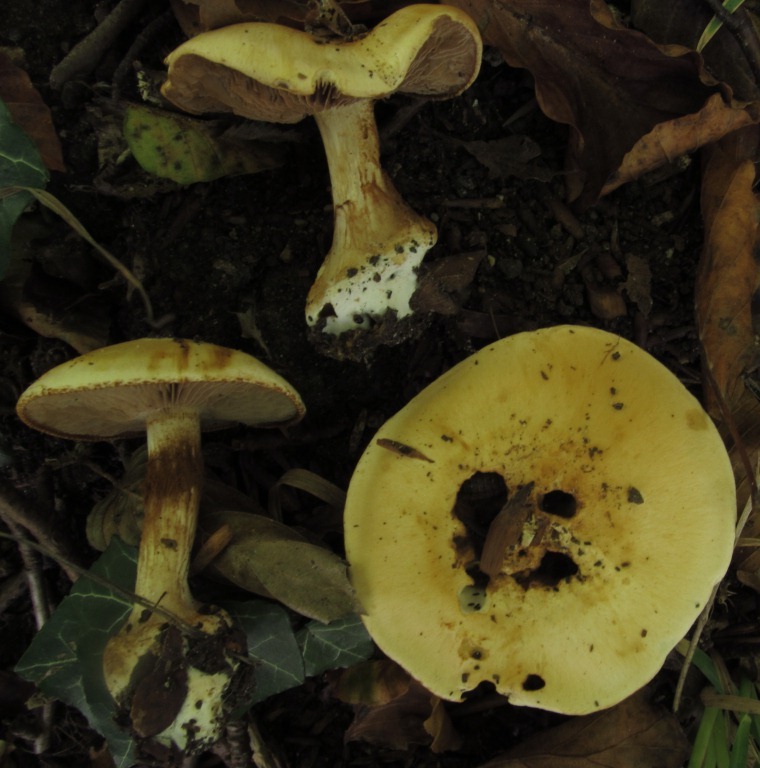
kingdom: Fungi
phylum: Basidiomycota
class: Agaricomycetes
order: Agaricales
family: Cortinariaceae
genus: Calonarius
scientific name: Calonarius albertii
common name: Alberts slørhat
